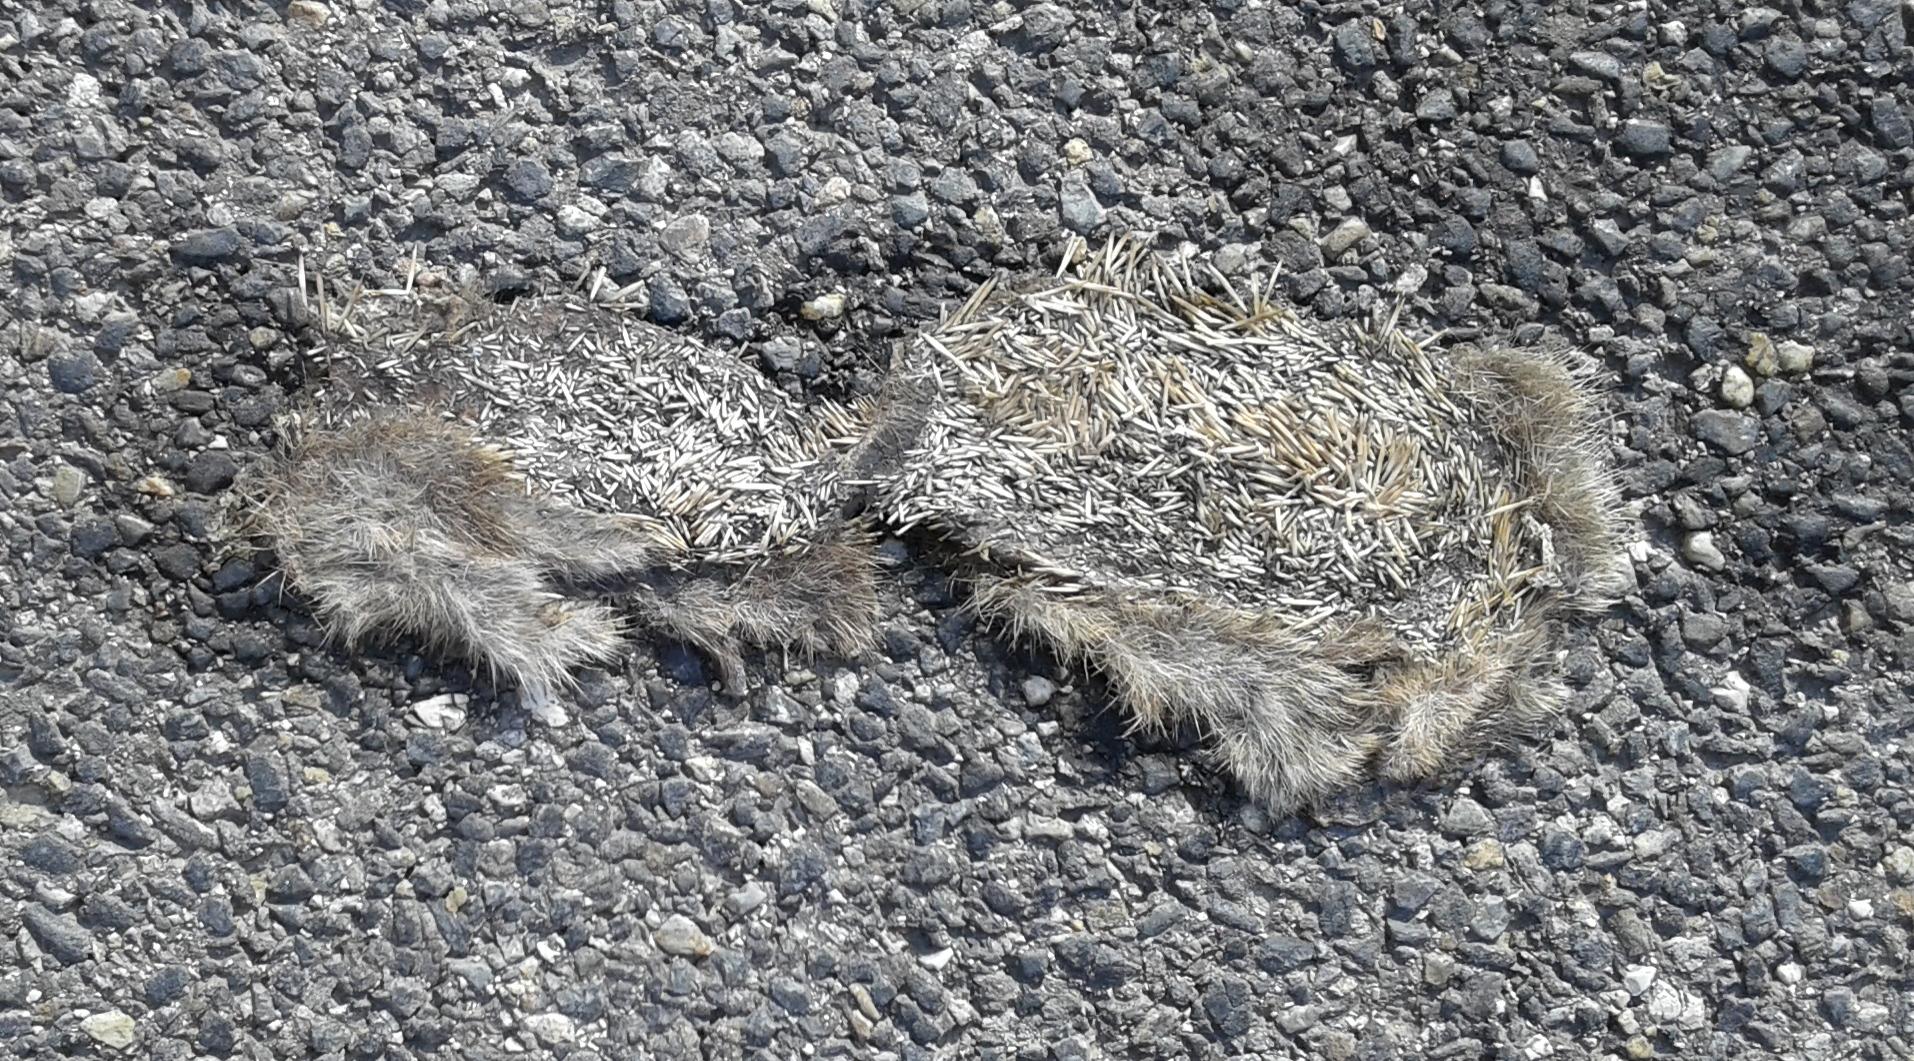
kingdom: Animalia
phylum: Chordata
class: Mammalia
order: Erinaceomorpha
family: Erinaceidae
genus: Erinaceus
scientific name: Erinaceus
